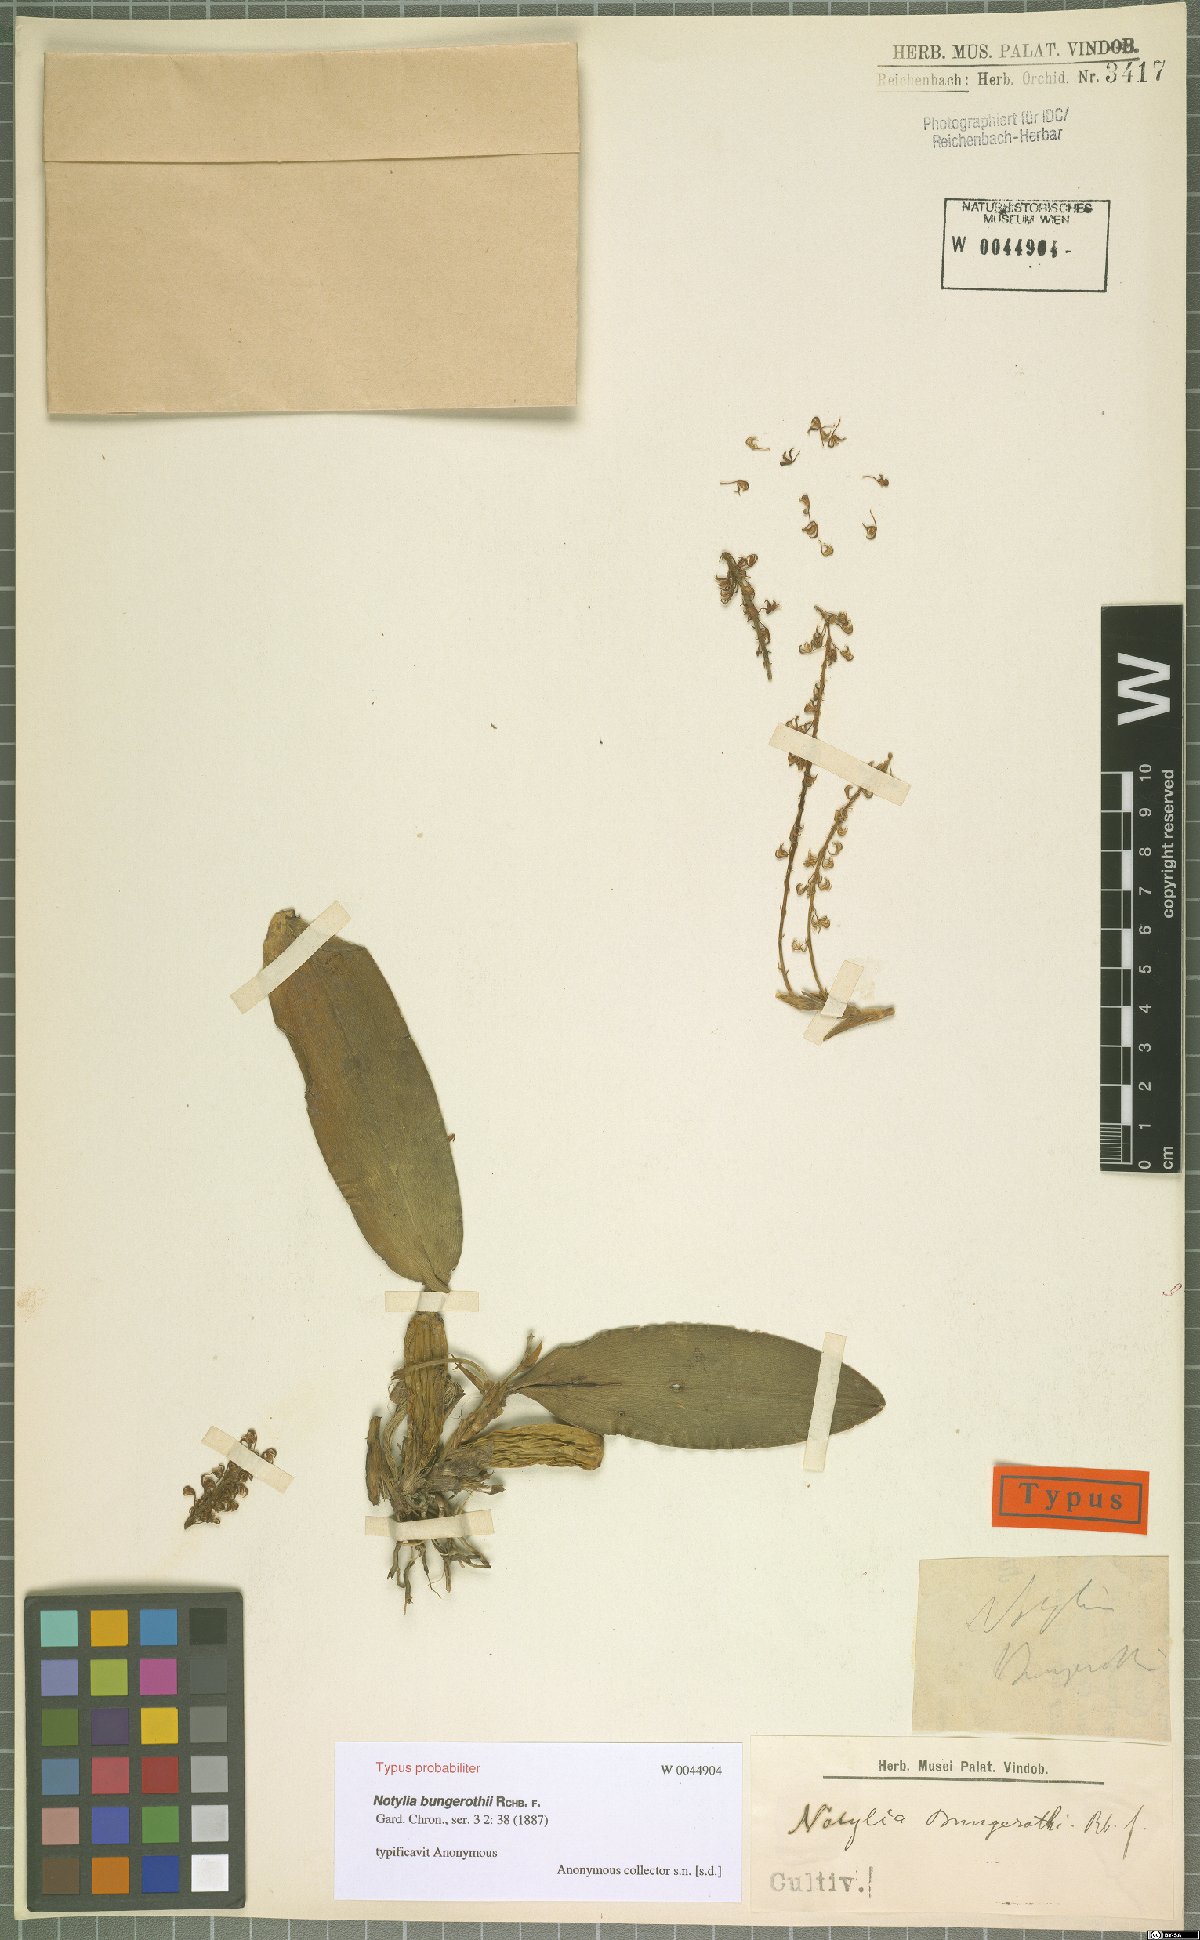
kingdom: Plantae
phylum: Tracheophyta
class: Liliopsida
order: Asparagales
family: Orchidaceae
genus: Notylia
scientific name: Notylia bungerothii
